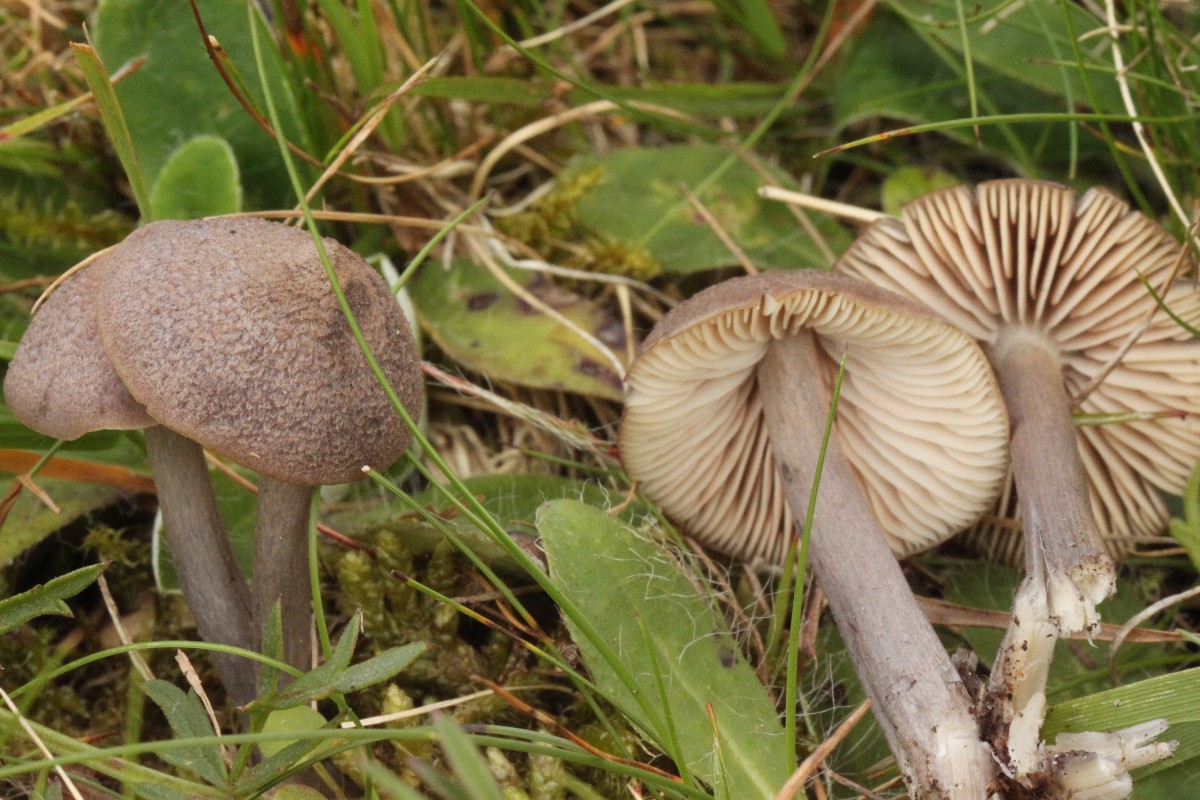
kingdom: Fungi
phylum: Basidiomycota
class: Agaricomycetes
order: Agaricales
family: Entolomataceae
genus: Entoloma
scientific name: Entoloma griseocyaneum
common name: gråblå rødblad
